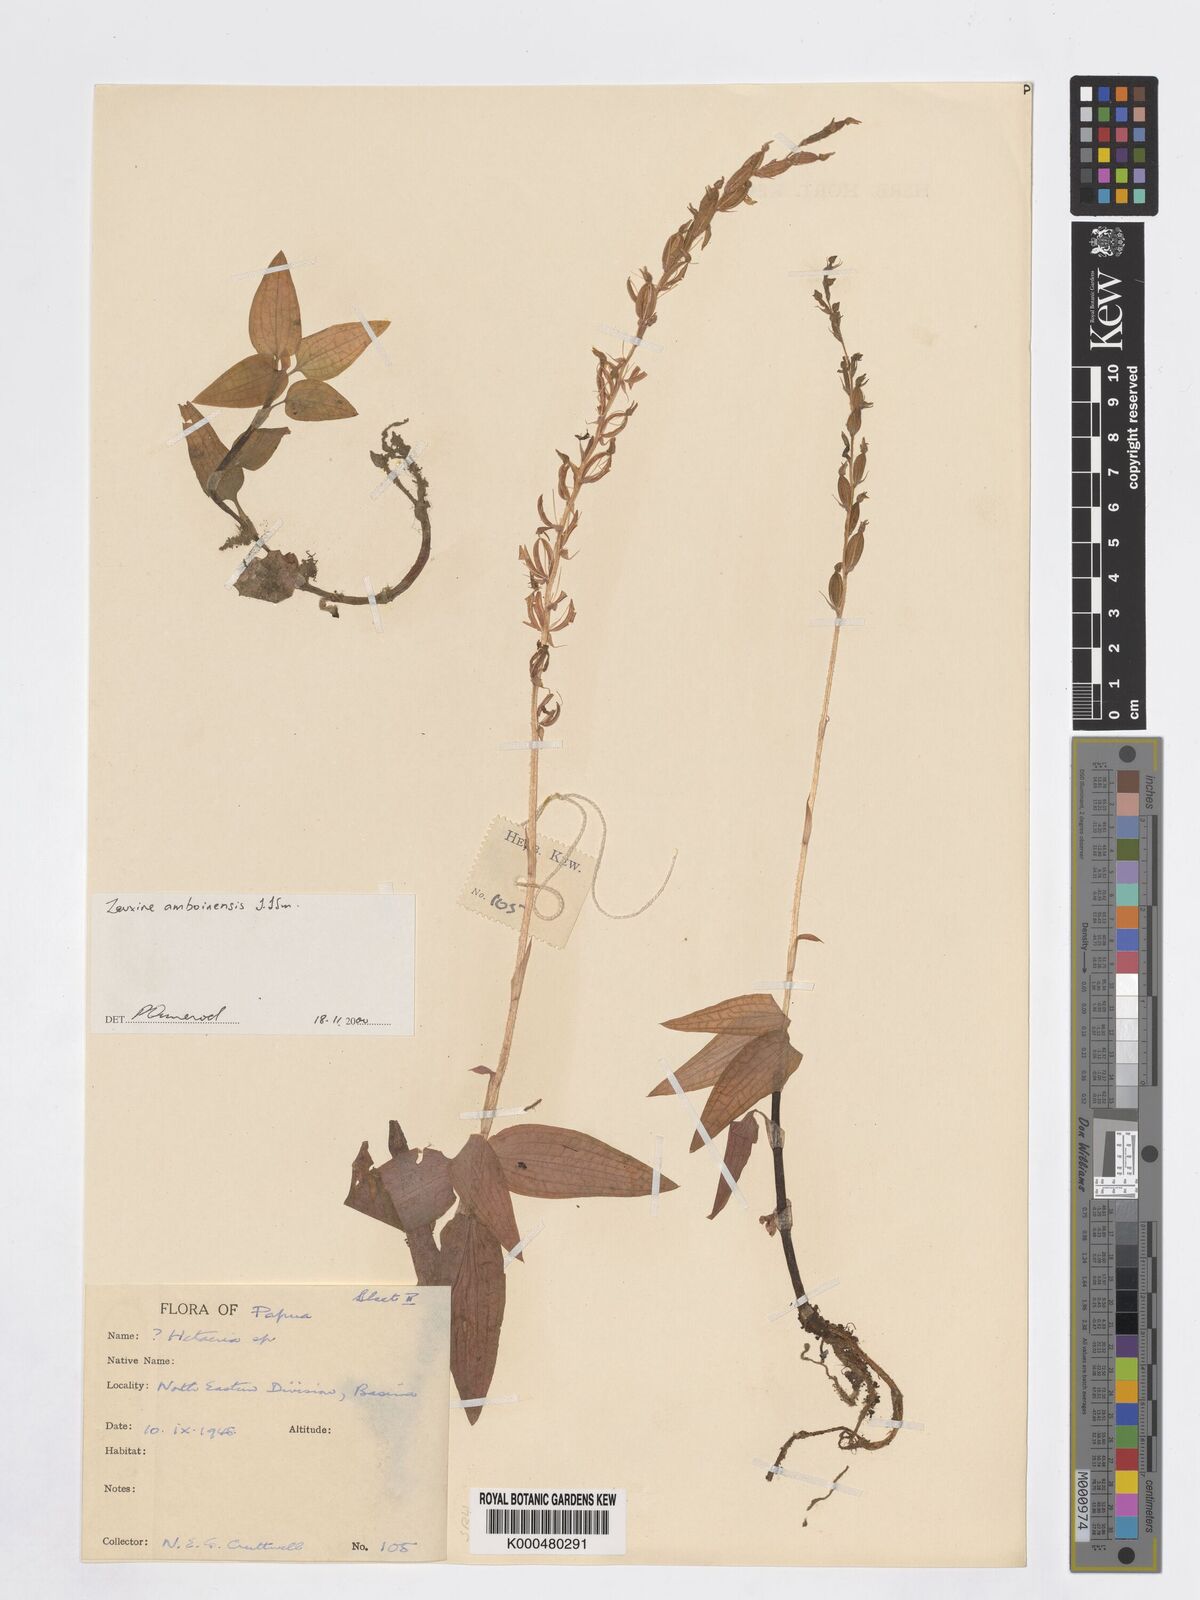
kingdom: Plantae
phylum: Tracheophyta
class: Liliopsida
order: Asparagales
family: Orchidaceae
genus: Zeuxine
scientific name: Zeuxine amboinensis
